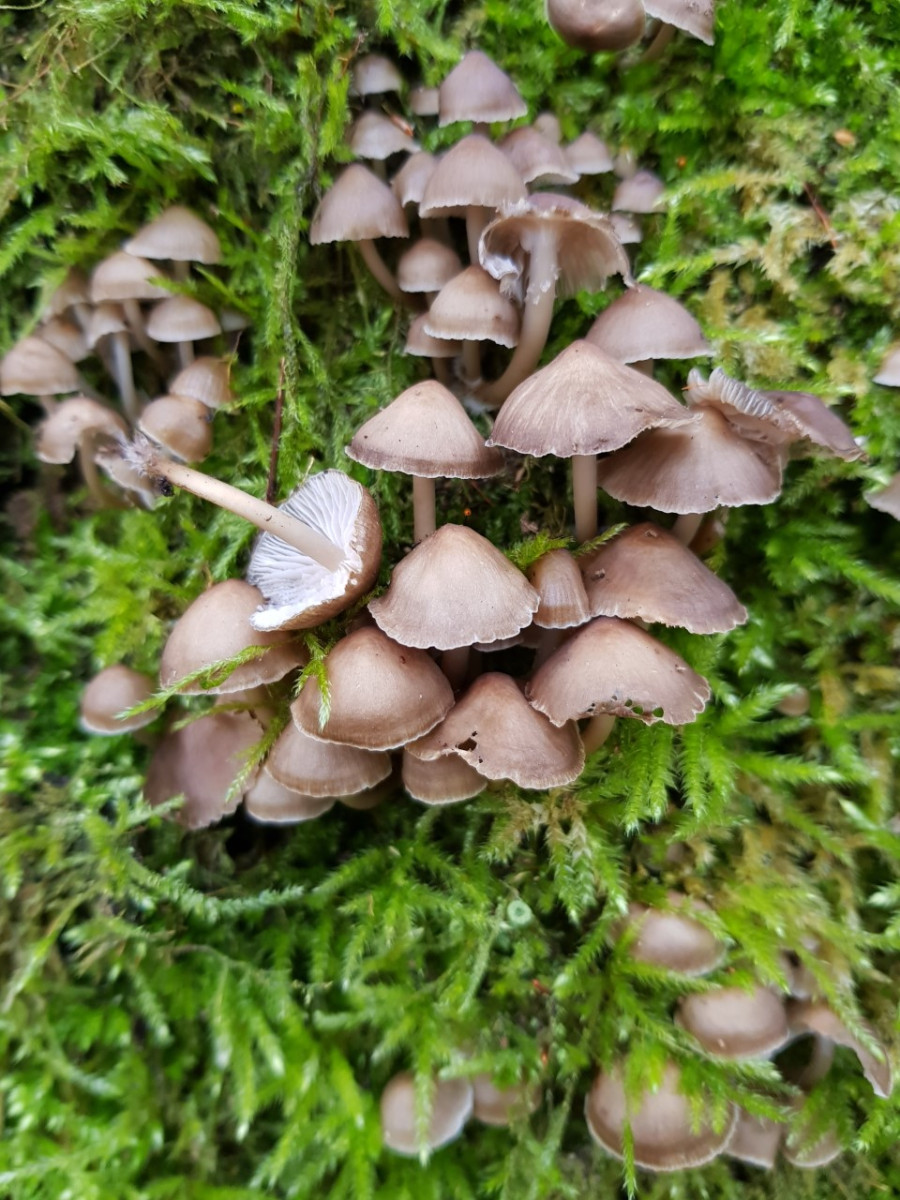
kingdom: Fungi
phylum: Basidiomycota
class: Agaricomycetes
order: Agaricales
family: Mycenaceae
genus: Mycena
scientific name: Mycena tintinnabulum
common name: vinter-huesvamp
